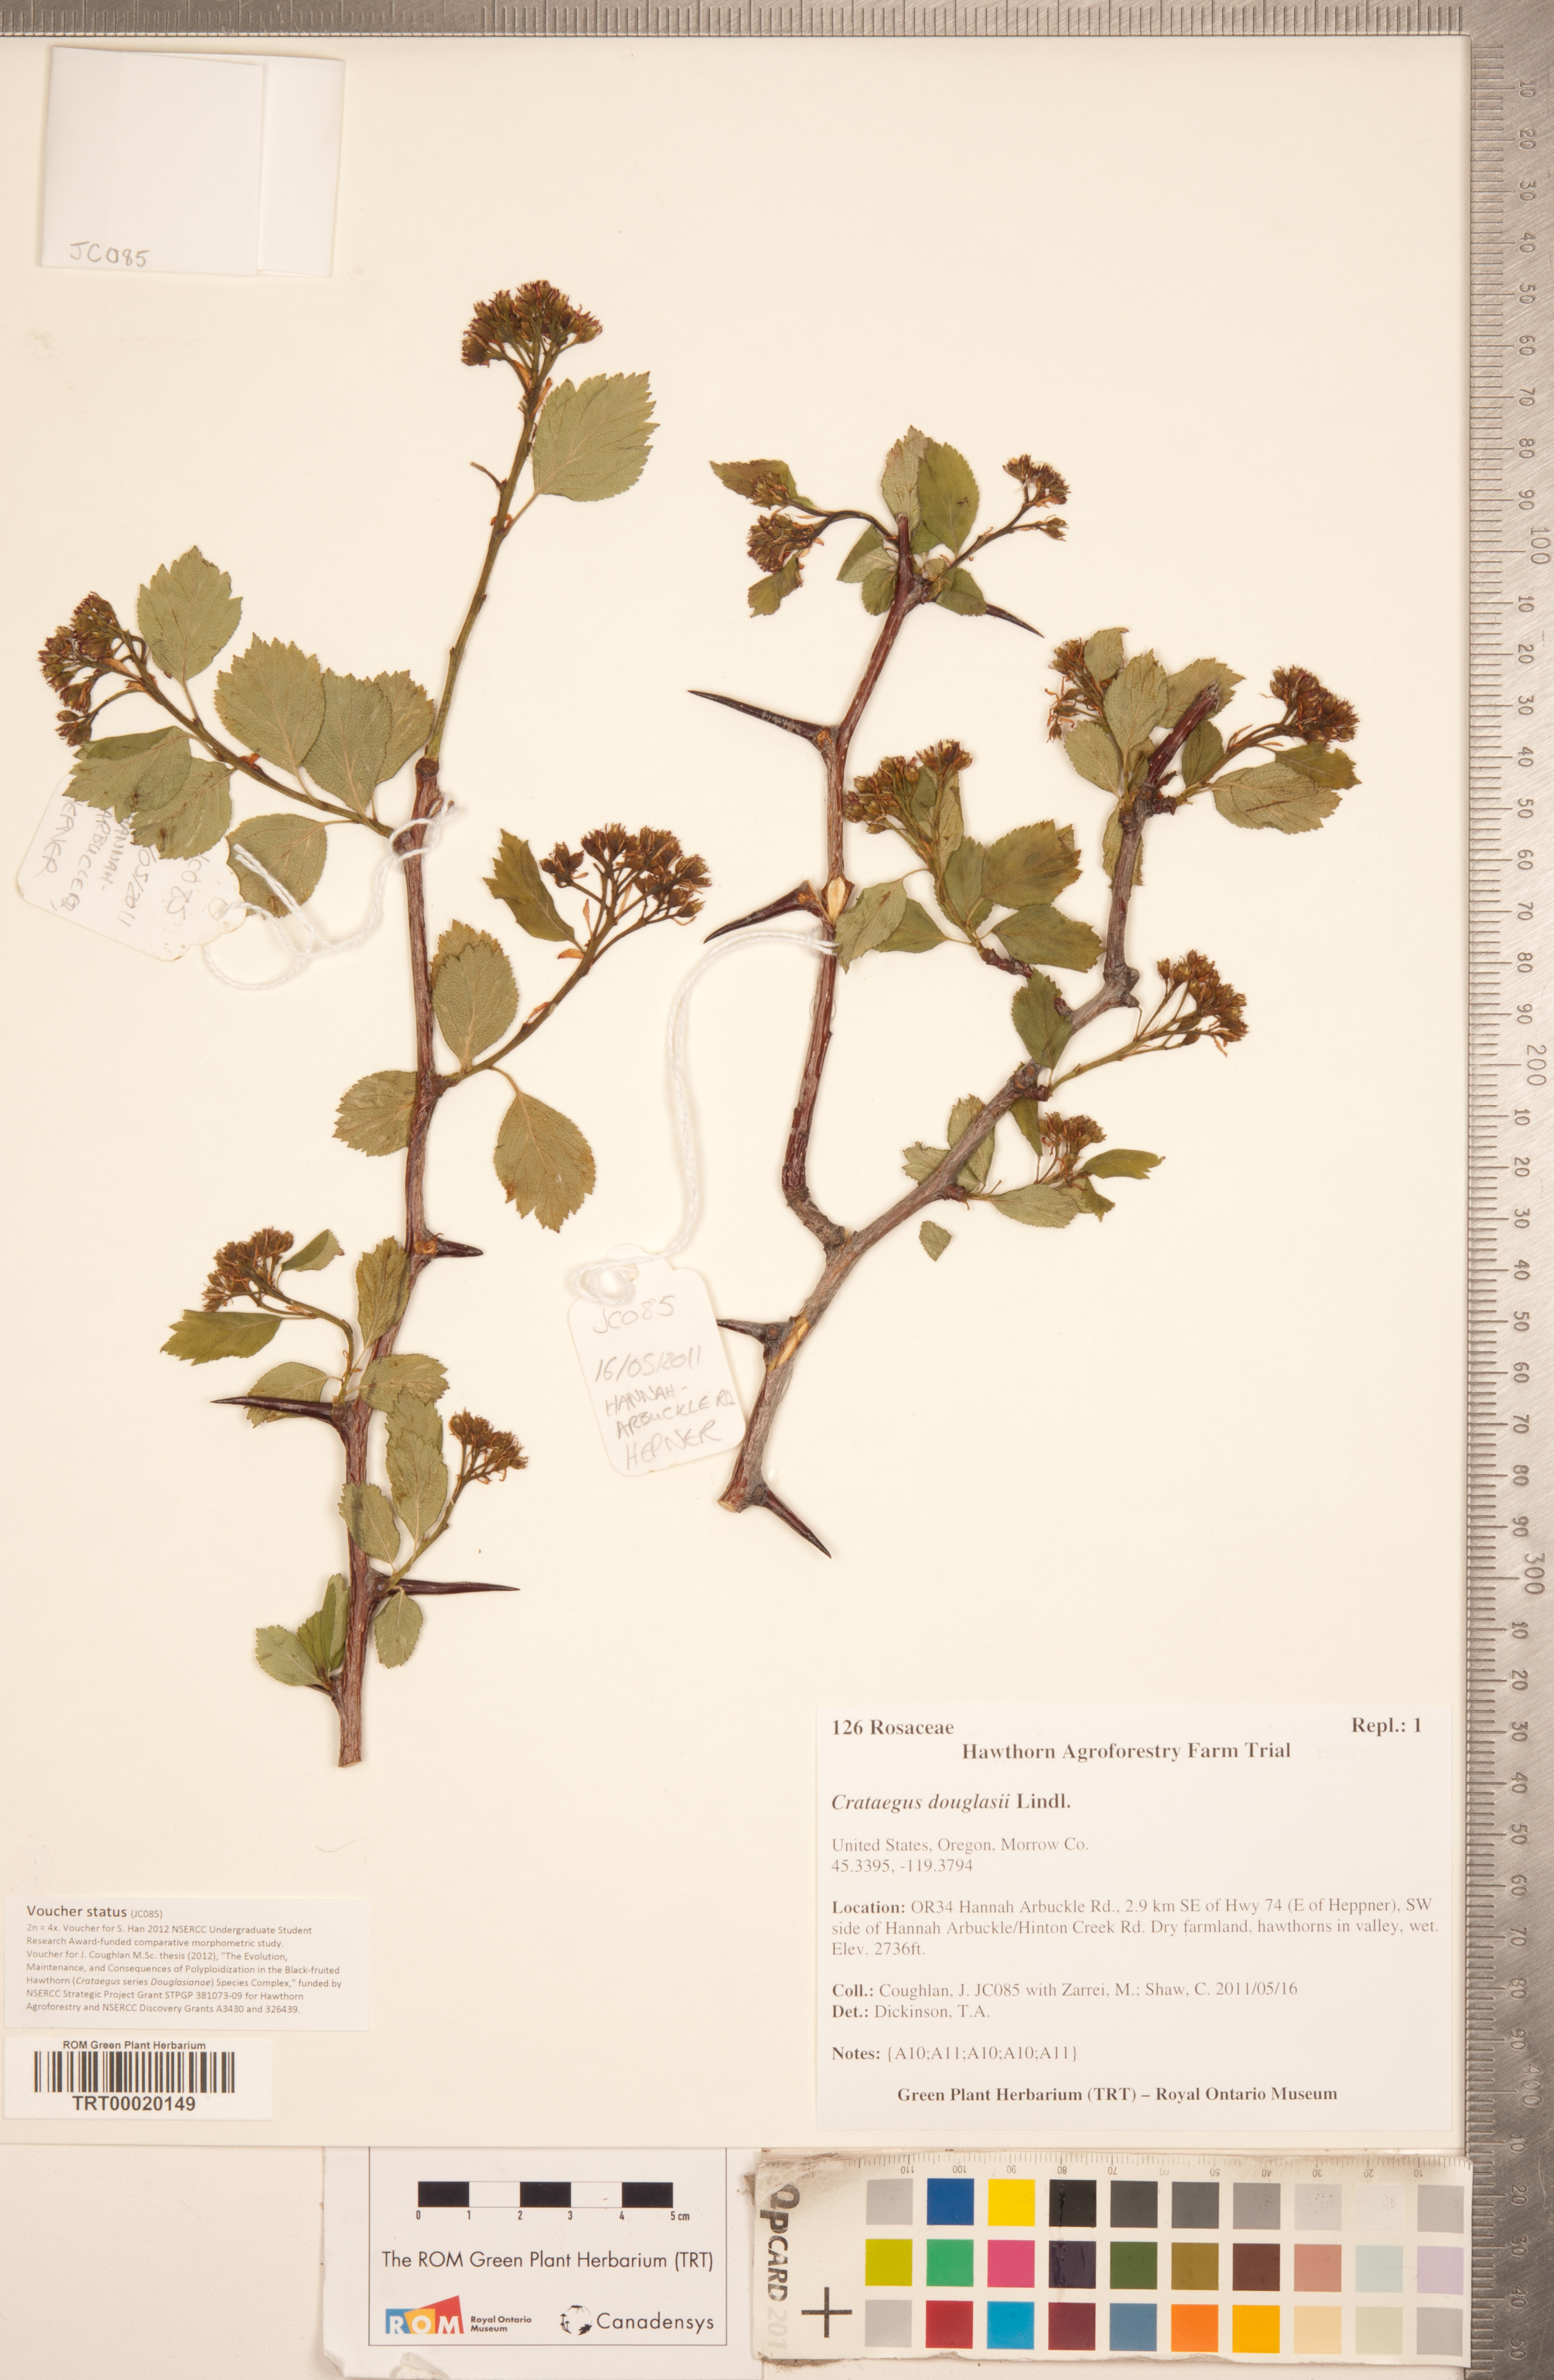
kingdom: Plantae
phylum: Tracheophyta
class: Magnoliopsida
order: Rosales
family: Rosaceae
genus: Crataegus
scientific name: Crataegus douglasii
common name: Black hawthorn
